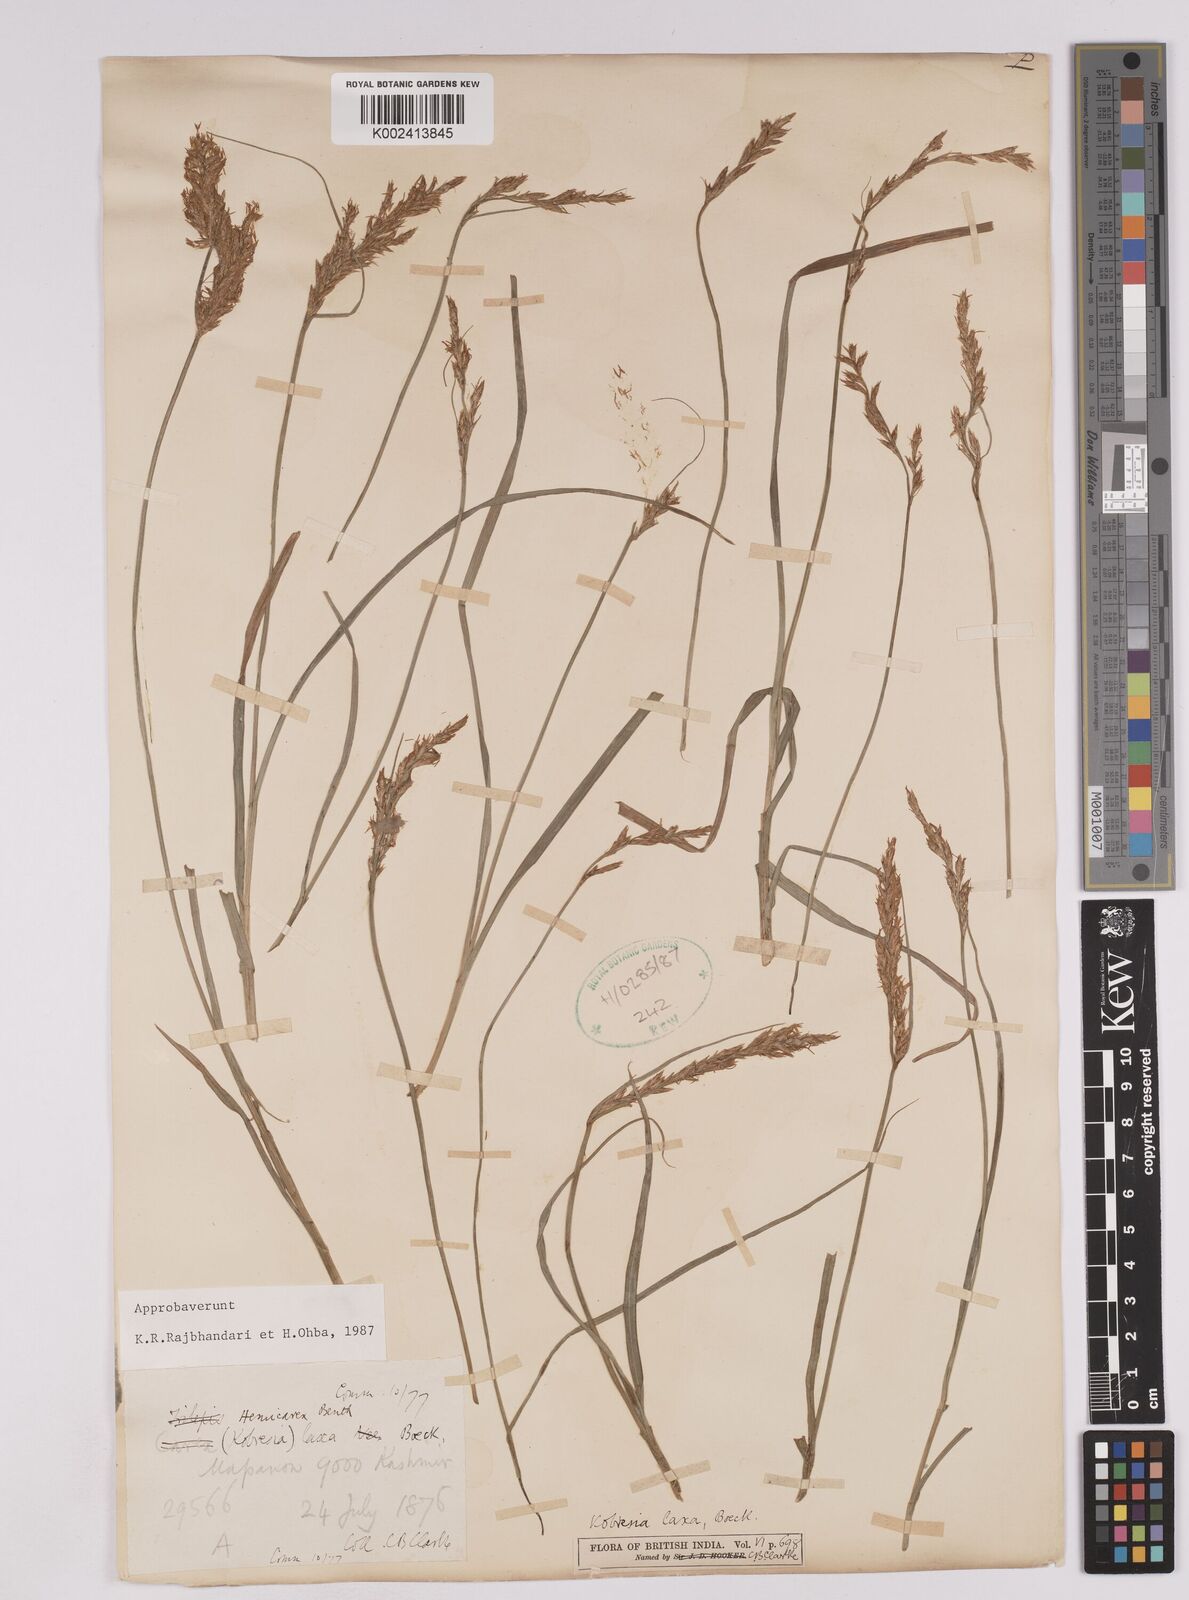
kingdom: Plantae
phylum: Tracheophyta
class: Liliopsida
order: Poales
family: Cyperaceae
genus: Carex
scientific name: Carex pseudolaxa
